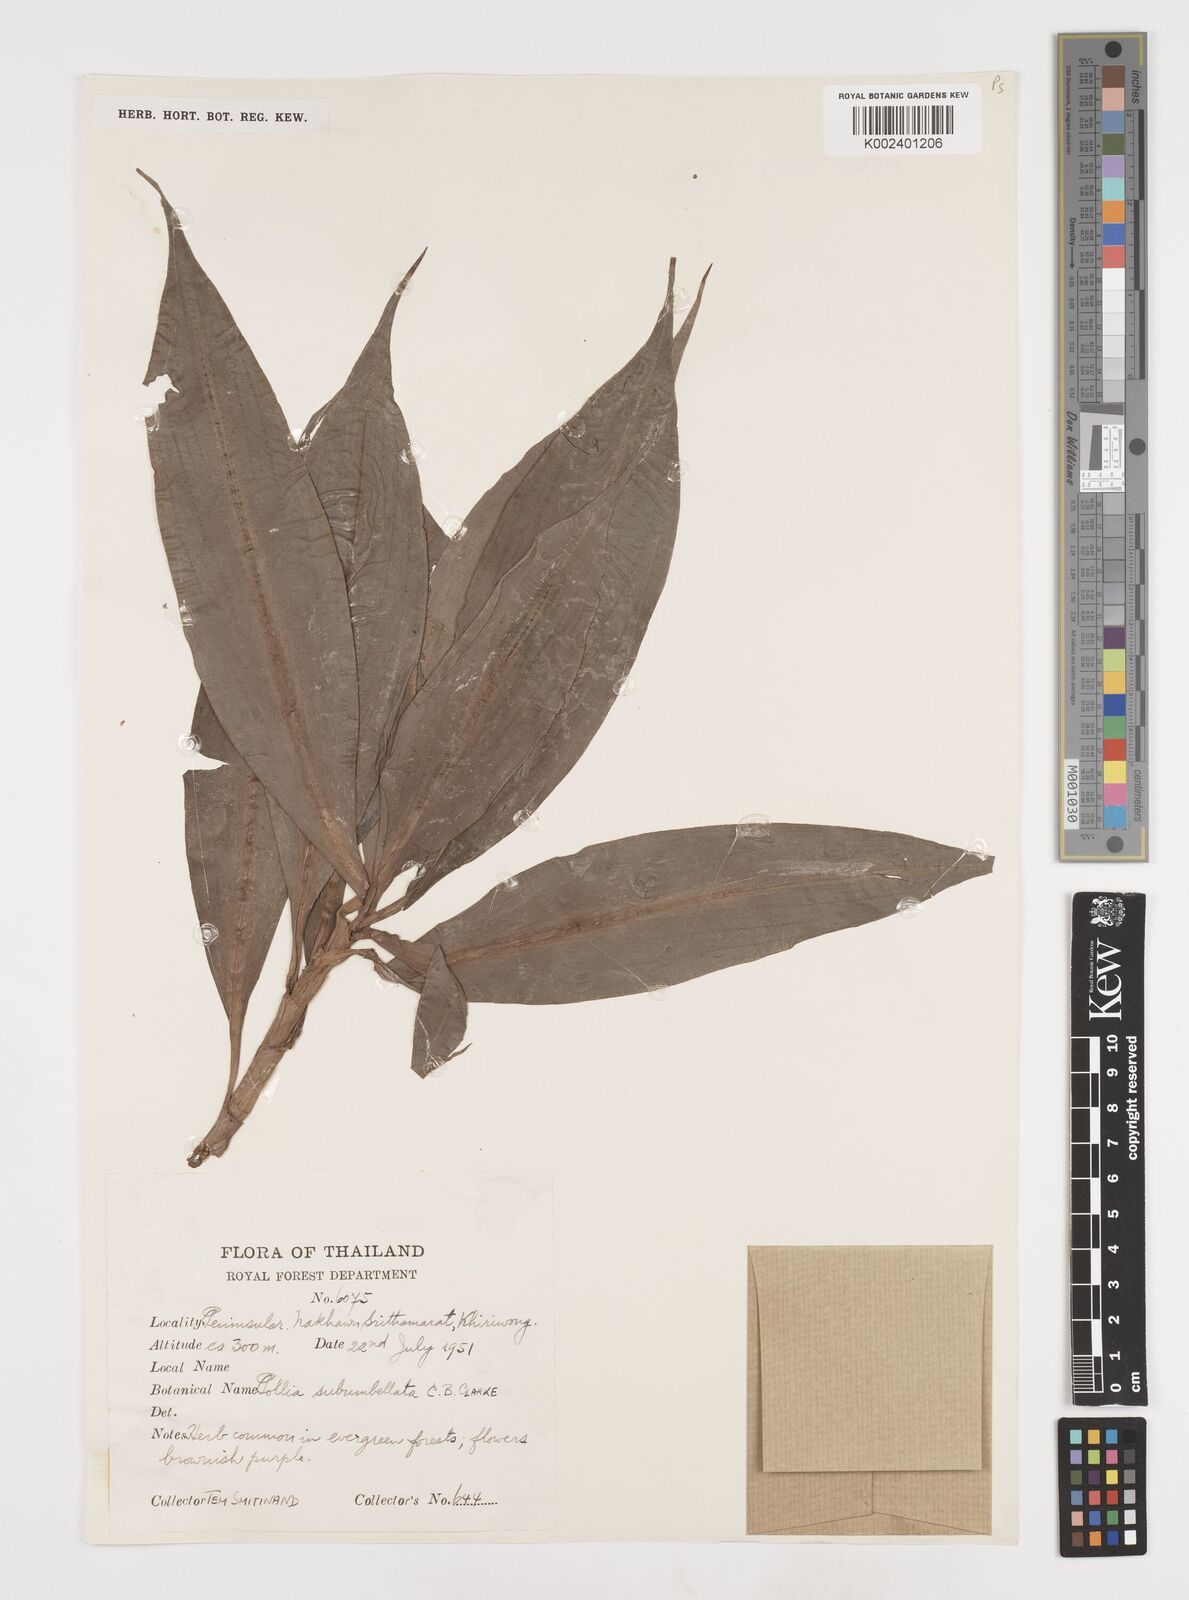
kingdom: Plantae
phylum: Tracheophyta
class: Liliopsida
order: Commelinales
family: Commelinaceae
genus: Pollia
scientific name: Pollia secundiflora
